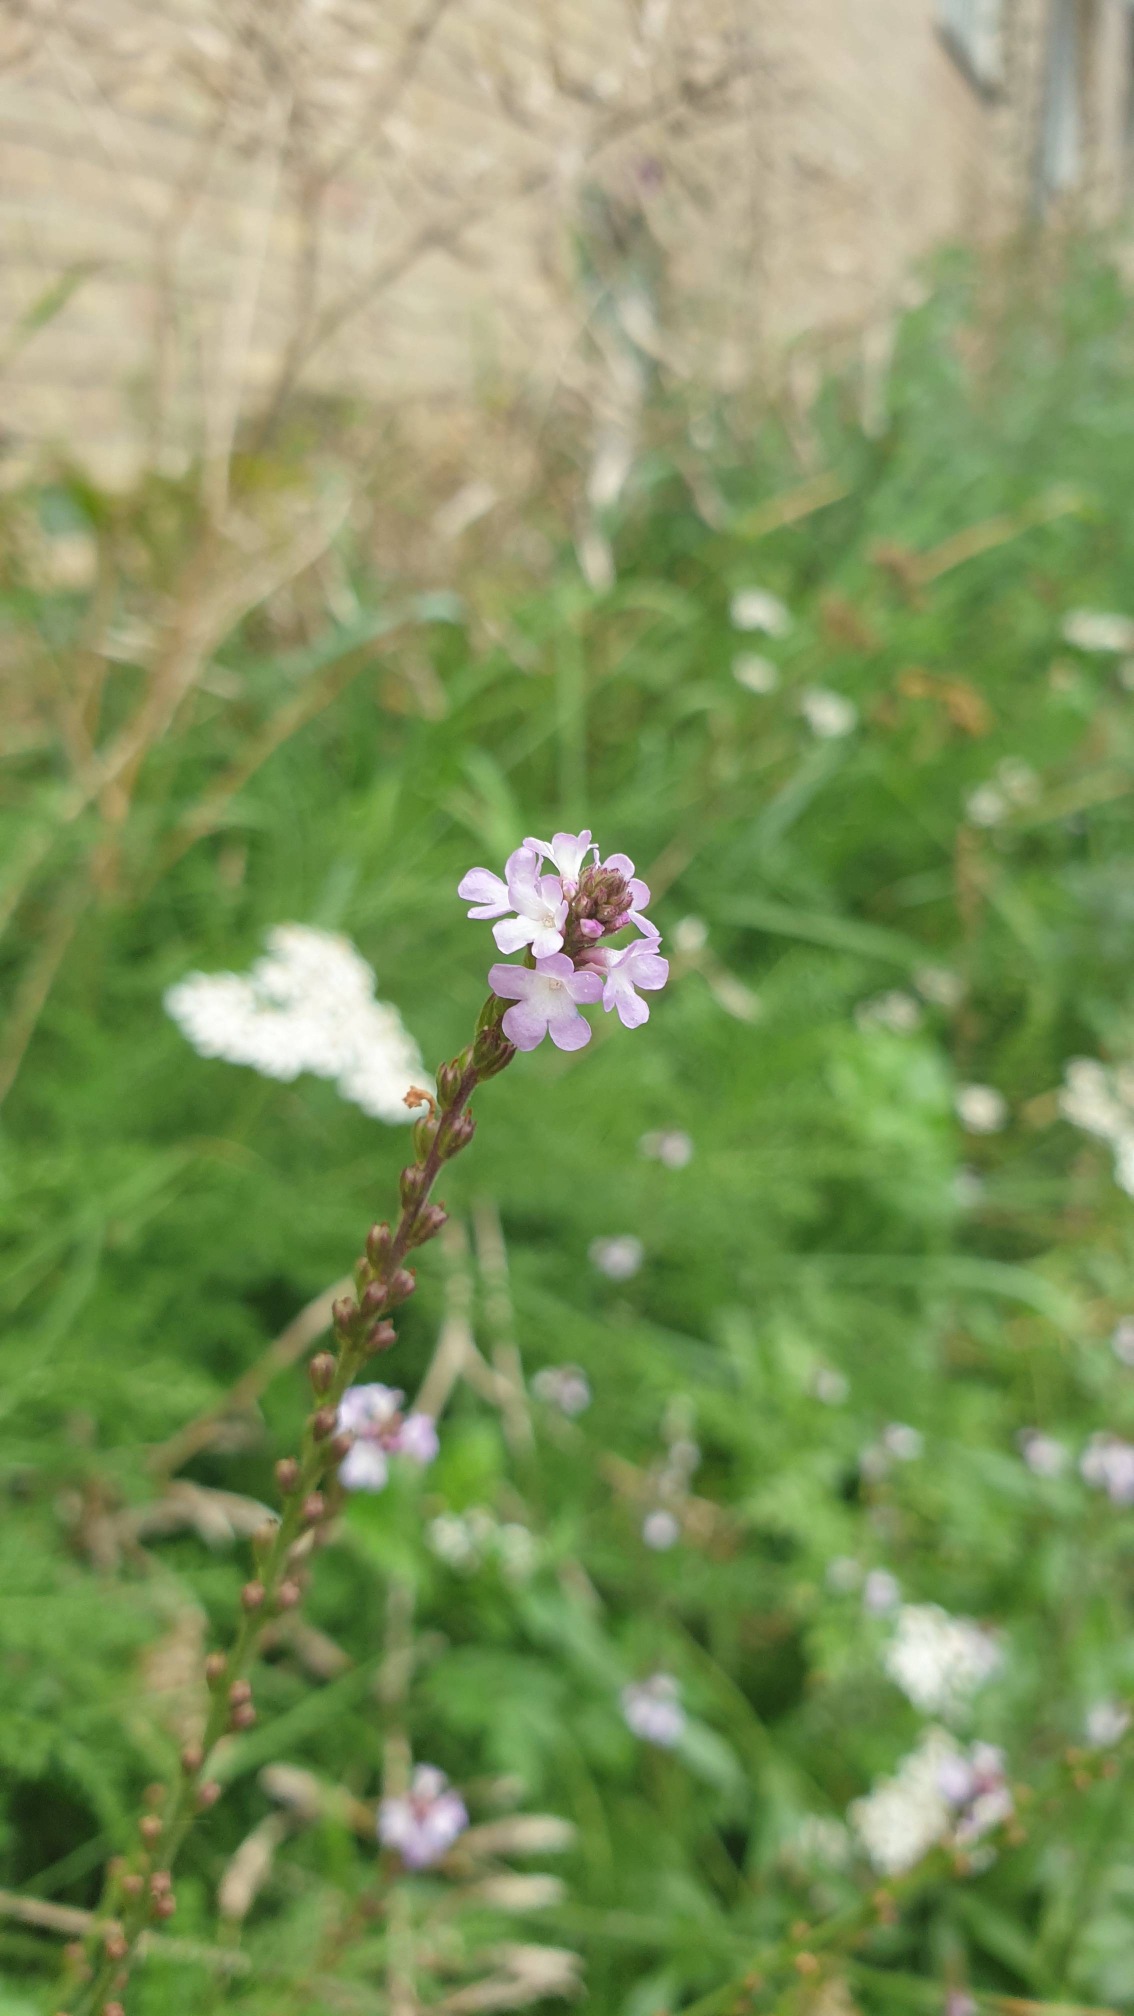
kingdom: Plantae
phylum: Tracheophyta
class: Magnoliopsida
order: Lamiales
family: Verbenaceae
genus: Verbena
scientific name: Verbena officinalis
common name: Læge-jernurt
